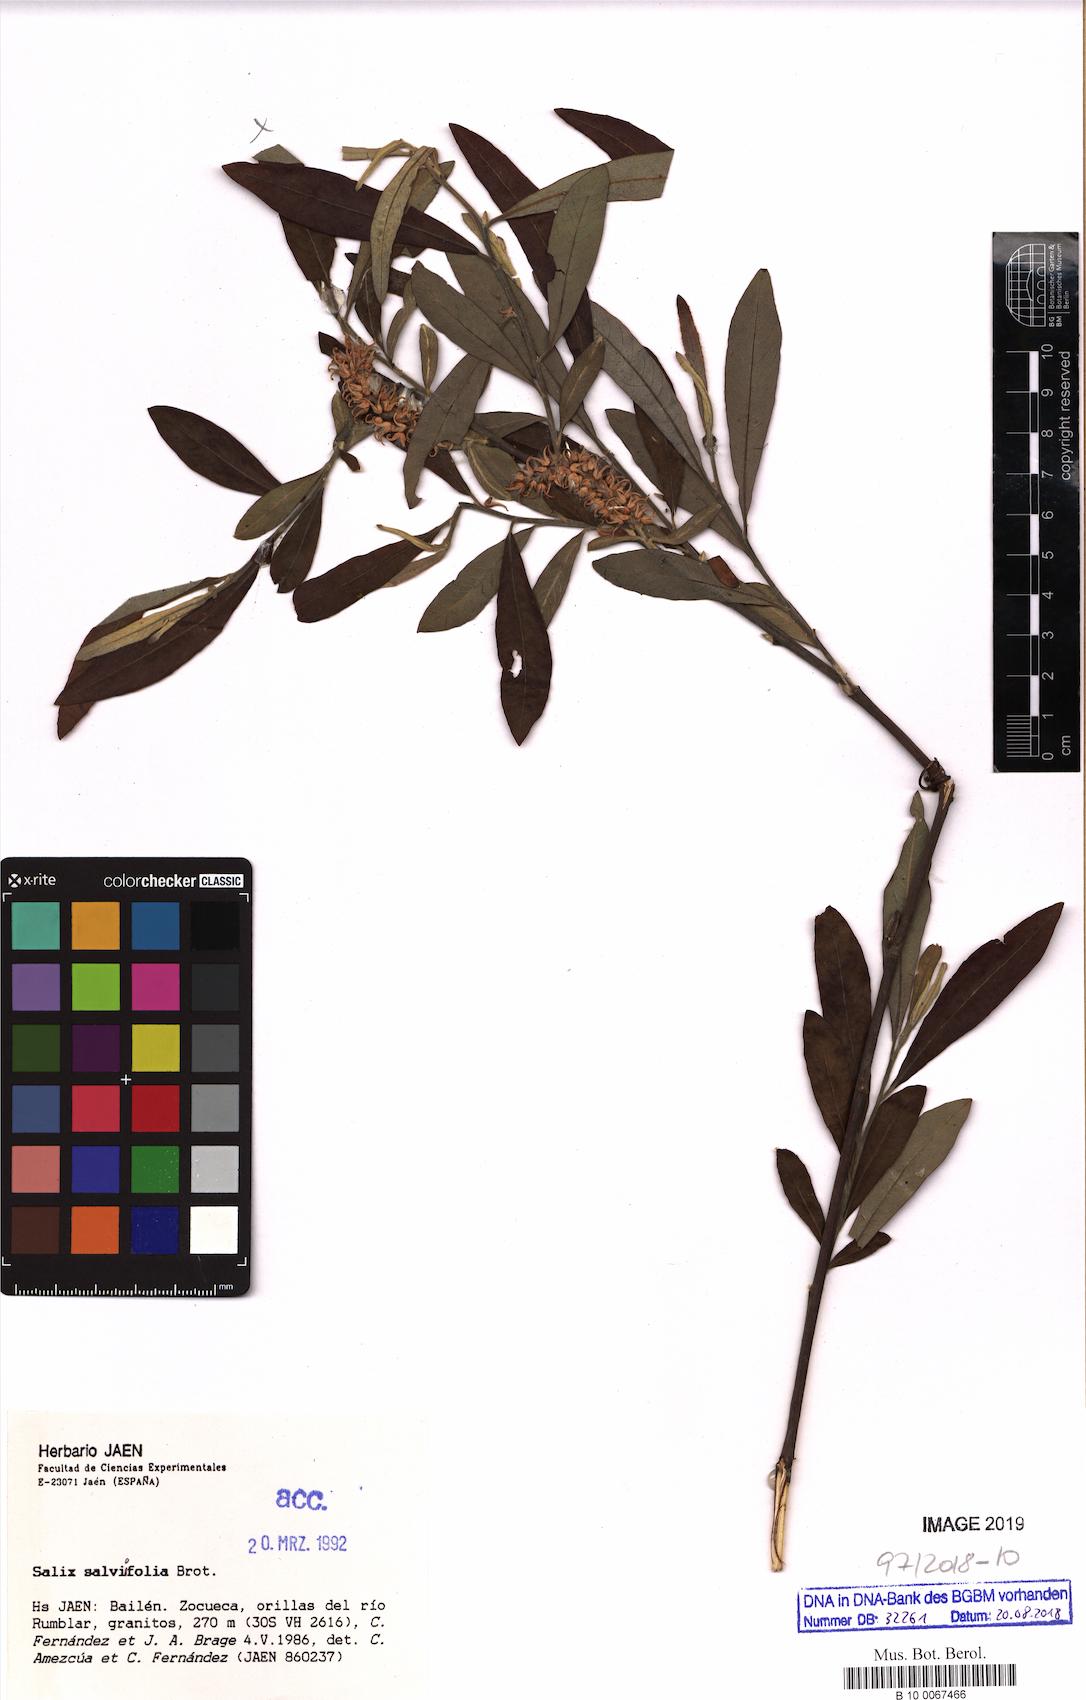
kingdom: Plantae
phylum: Tracheophyta
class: Magnoliopsida
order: Malpighiales
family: Salicaceae
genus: Salix
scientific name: Salix salviifolia
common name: Salvia-leaf willow
